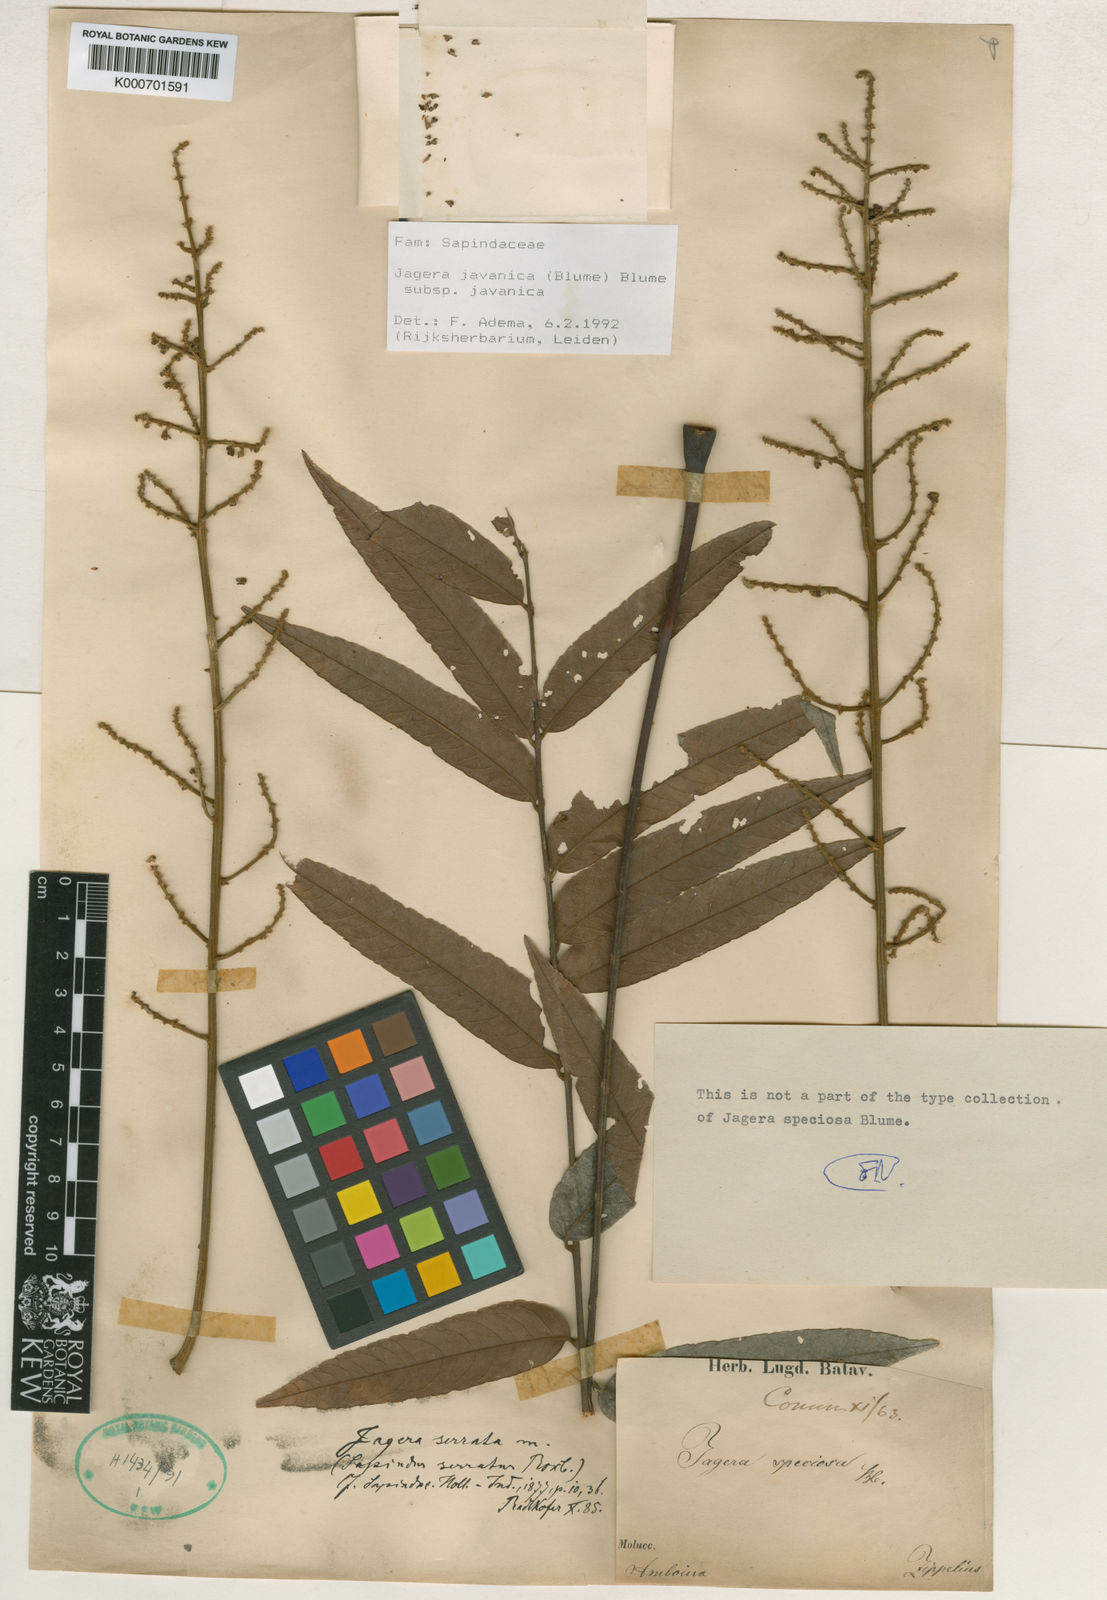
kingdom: Plantae
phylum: Tracheophyta
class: Magnoliopsida
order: Sapindales
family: Sapindaceae
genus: Jagera
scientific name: Jagera javanica
